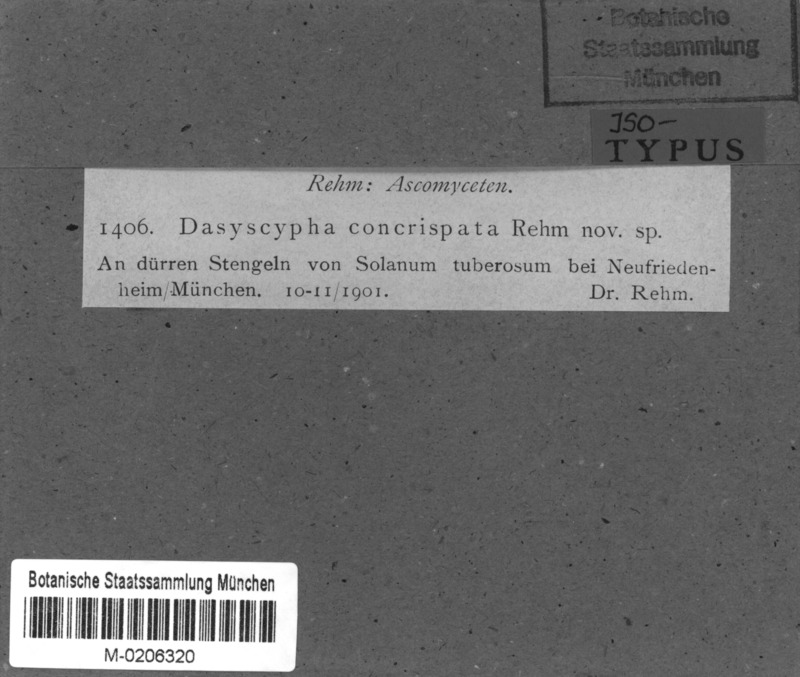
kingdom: Fungi
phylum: Basidiomycota
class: Agaricomycetes
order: Agaricales
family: Niaceae
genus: Lachnella
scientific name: Lachnella concrispata
